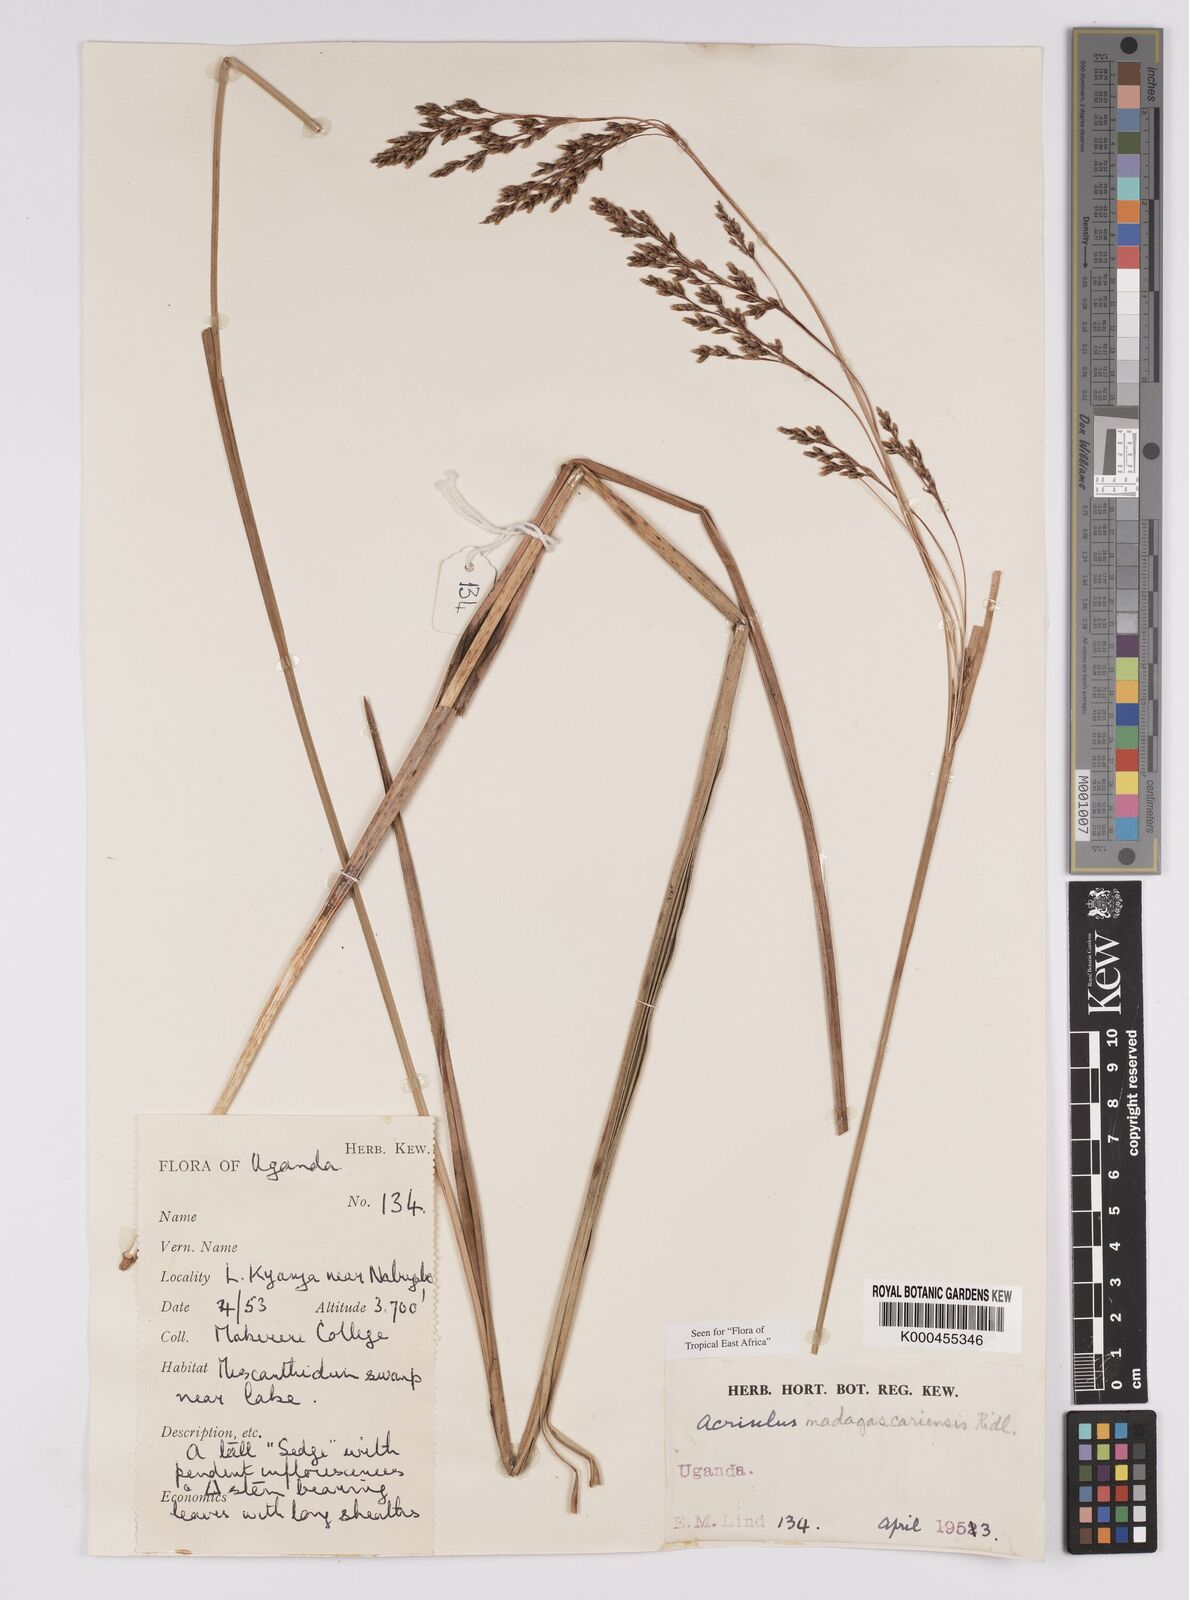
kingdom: Plantae
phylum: Tracheophyta
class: Liliopsida
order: Poales
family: Cyperaceae
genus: Scleria
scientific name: Scleria greigiifolia
